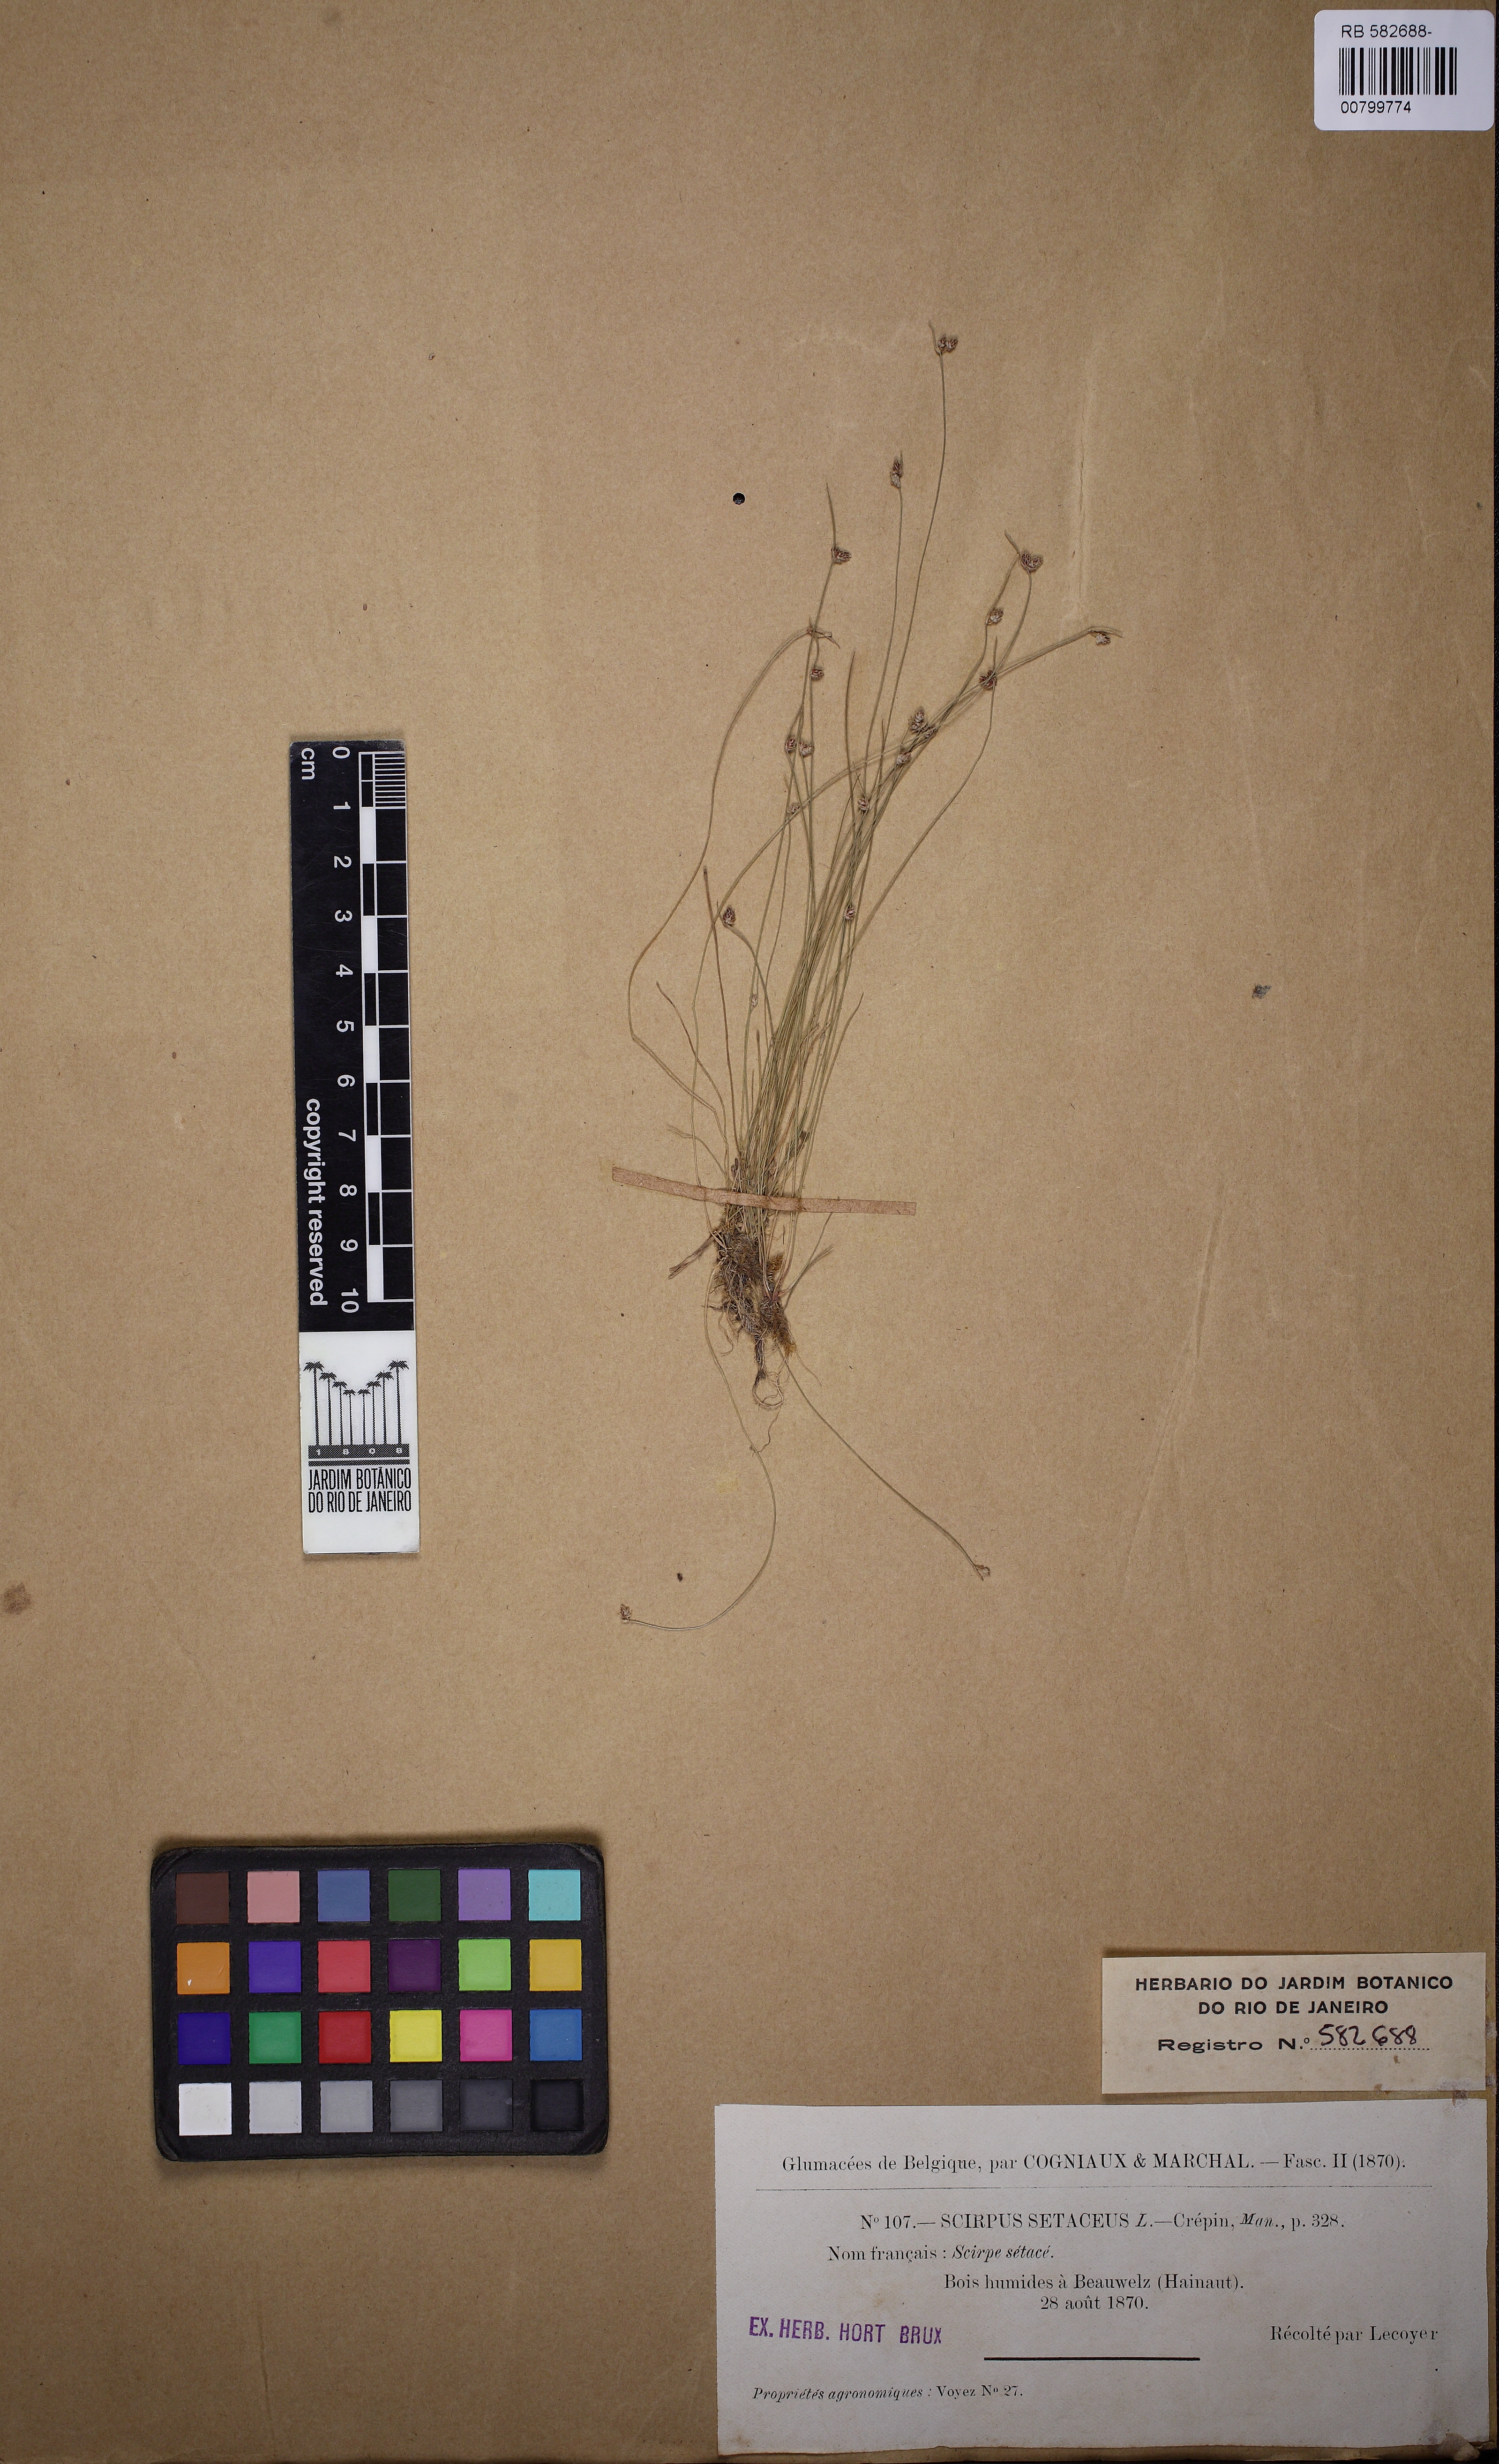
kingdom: Plantae
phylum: Tracheophyta
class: Liliopsida
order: Poales
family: Cyperaceae
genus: Isolepis
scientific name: Isolepis setacea
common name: Bristle club-rush
